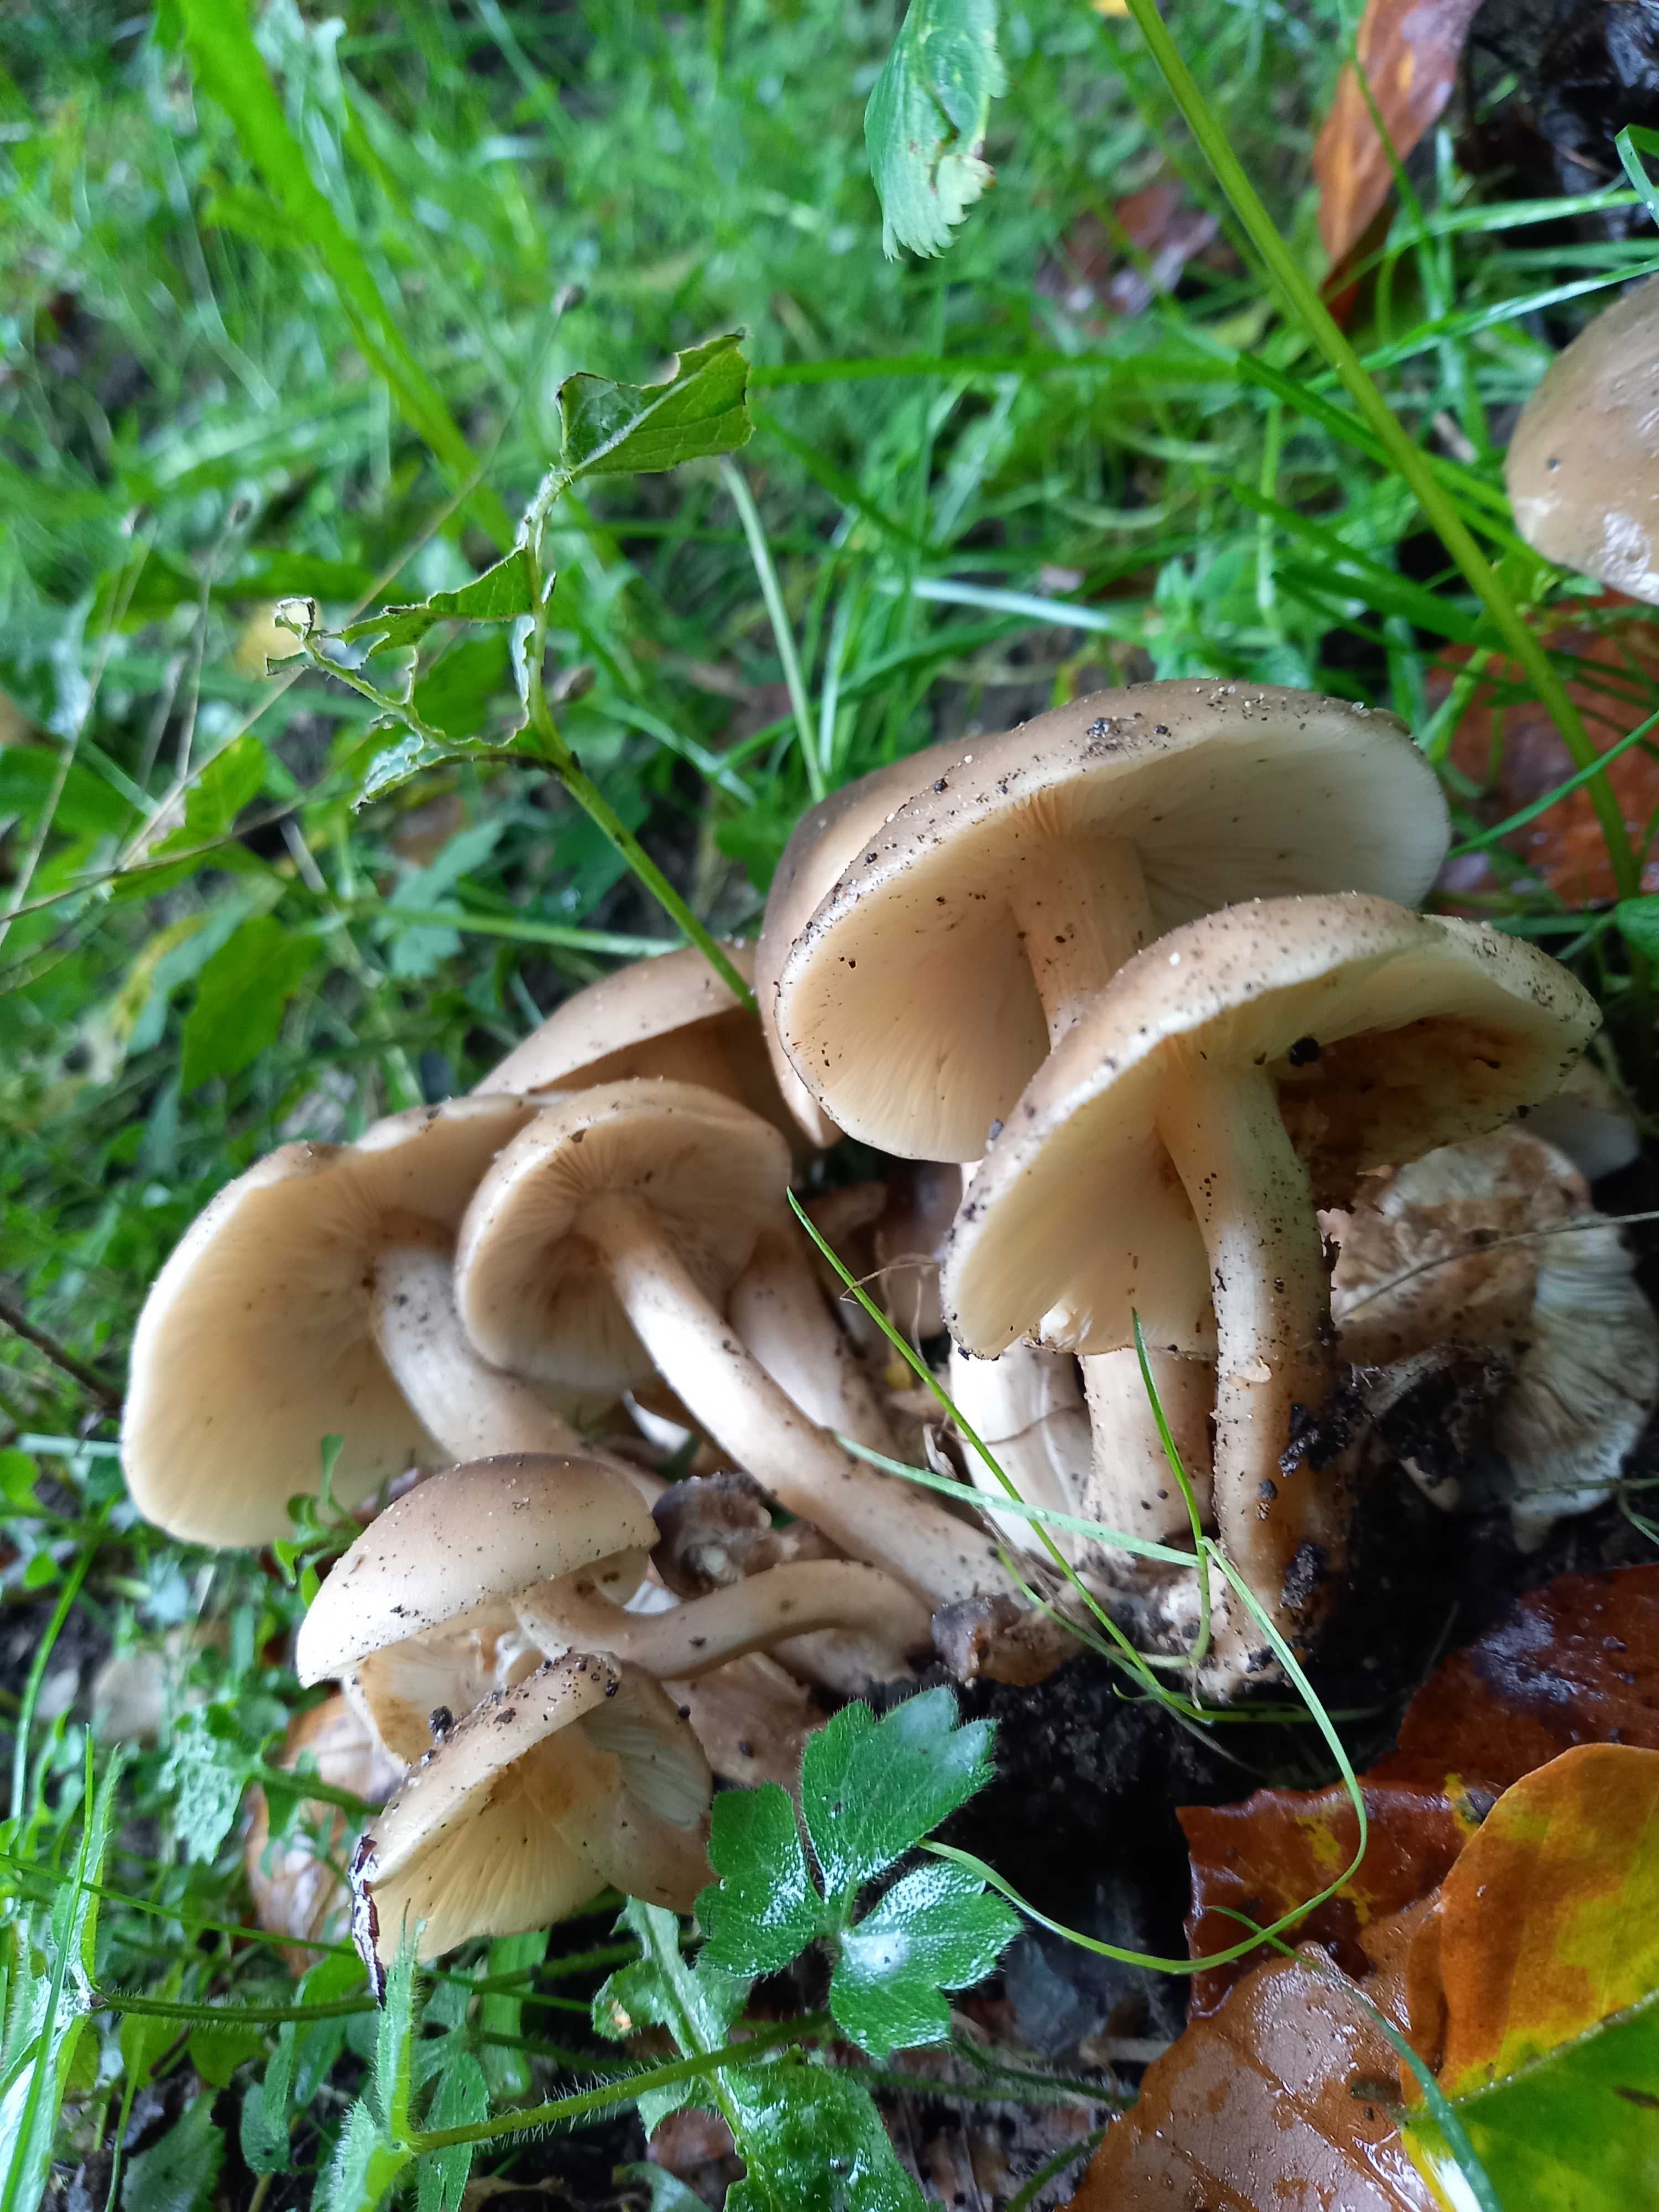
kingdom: Fungi
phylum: Basidiomycota
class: Agaricomycetes
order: Agaricales
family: Lyophyllaceae
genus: Lyophyllum
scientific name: Lyophyllum
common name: gråblad
